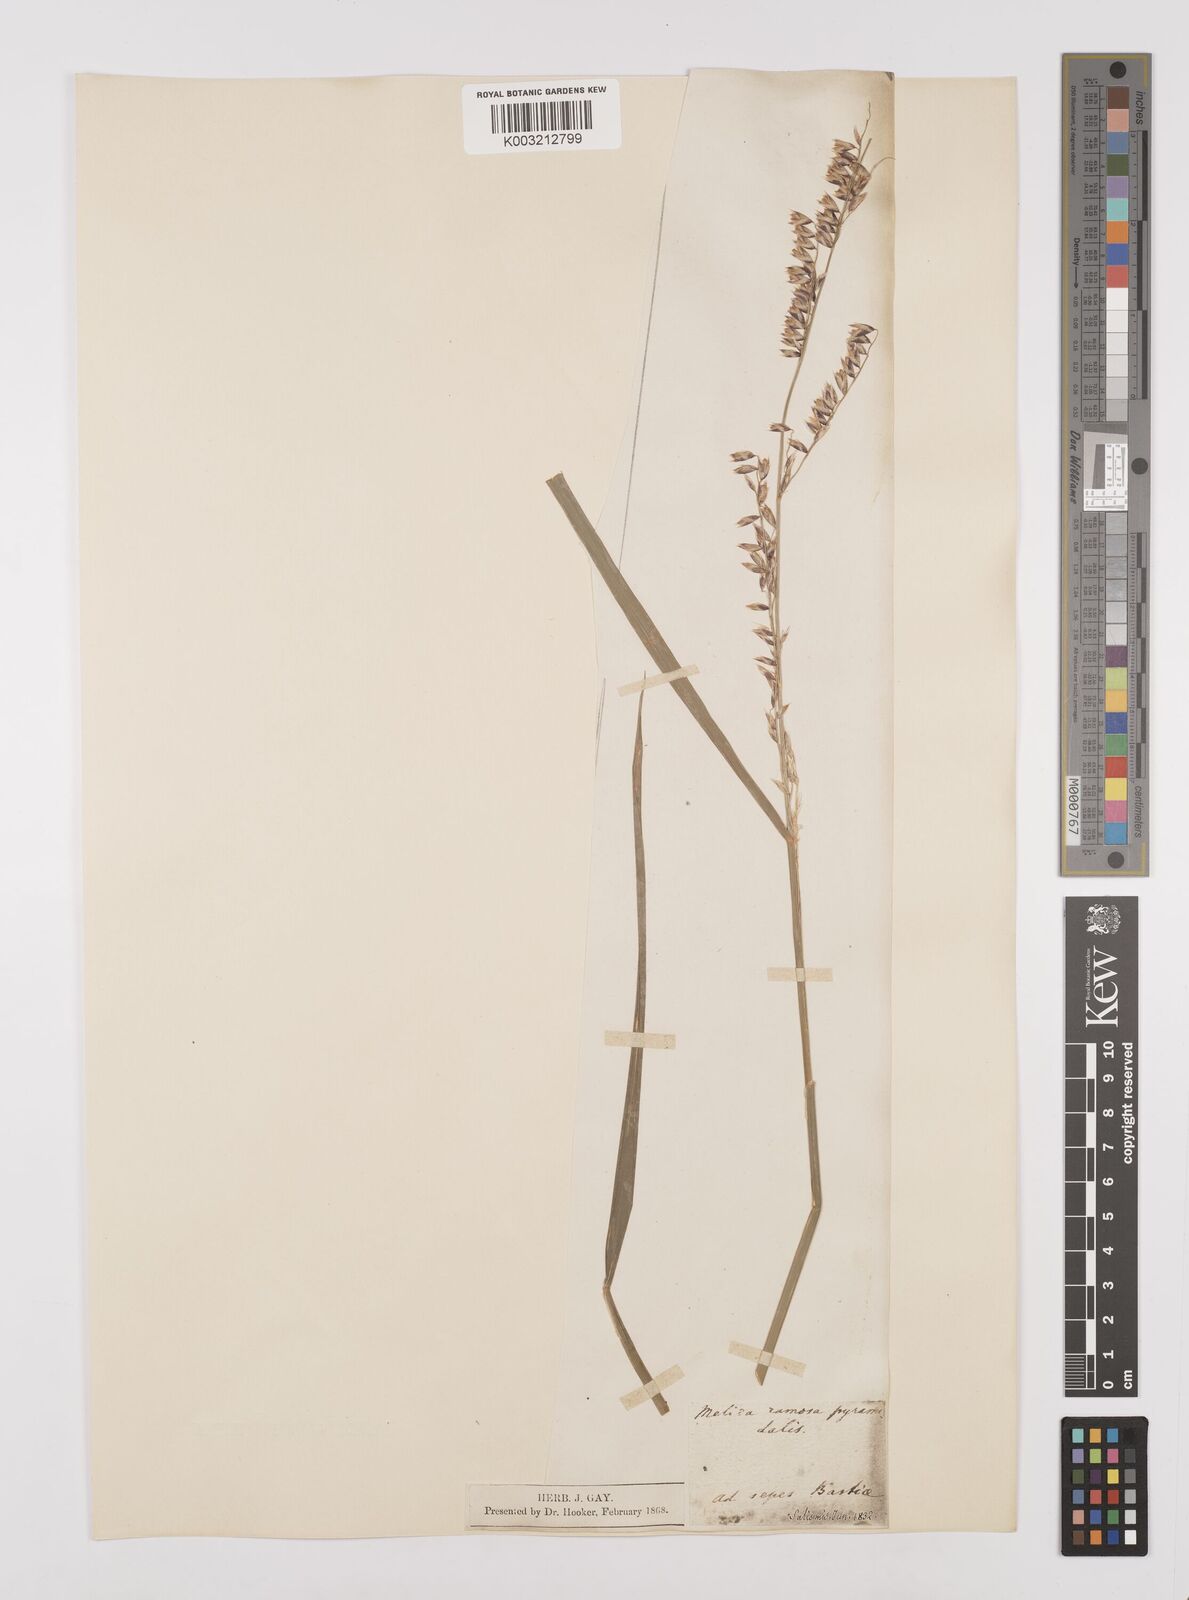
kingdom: Plantae
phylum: Tracheophyta
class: Liliopsida
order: Poales
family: Poaceae
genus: Melica
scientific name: Melica minuta
